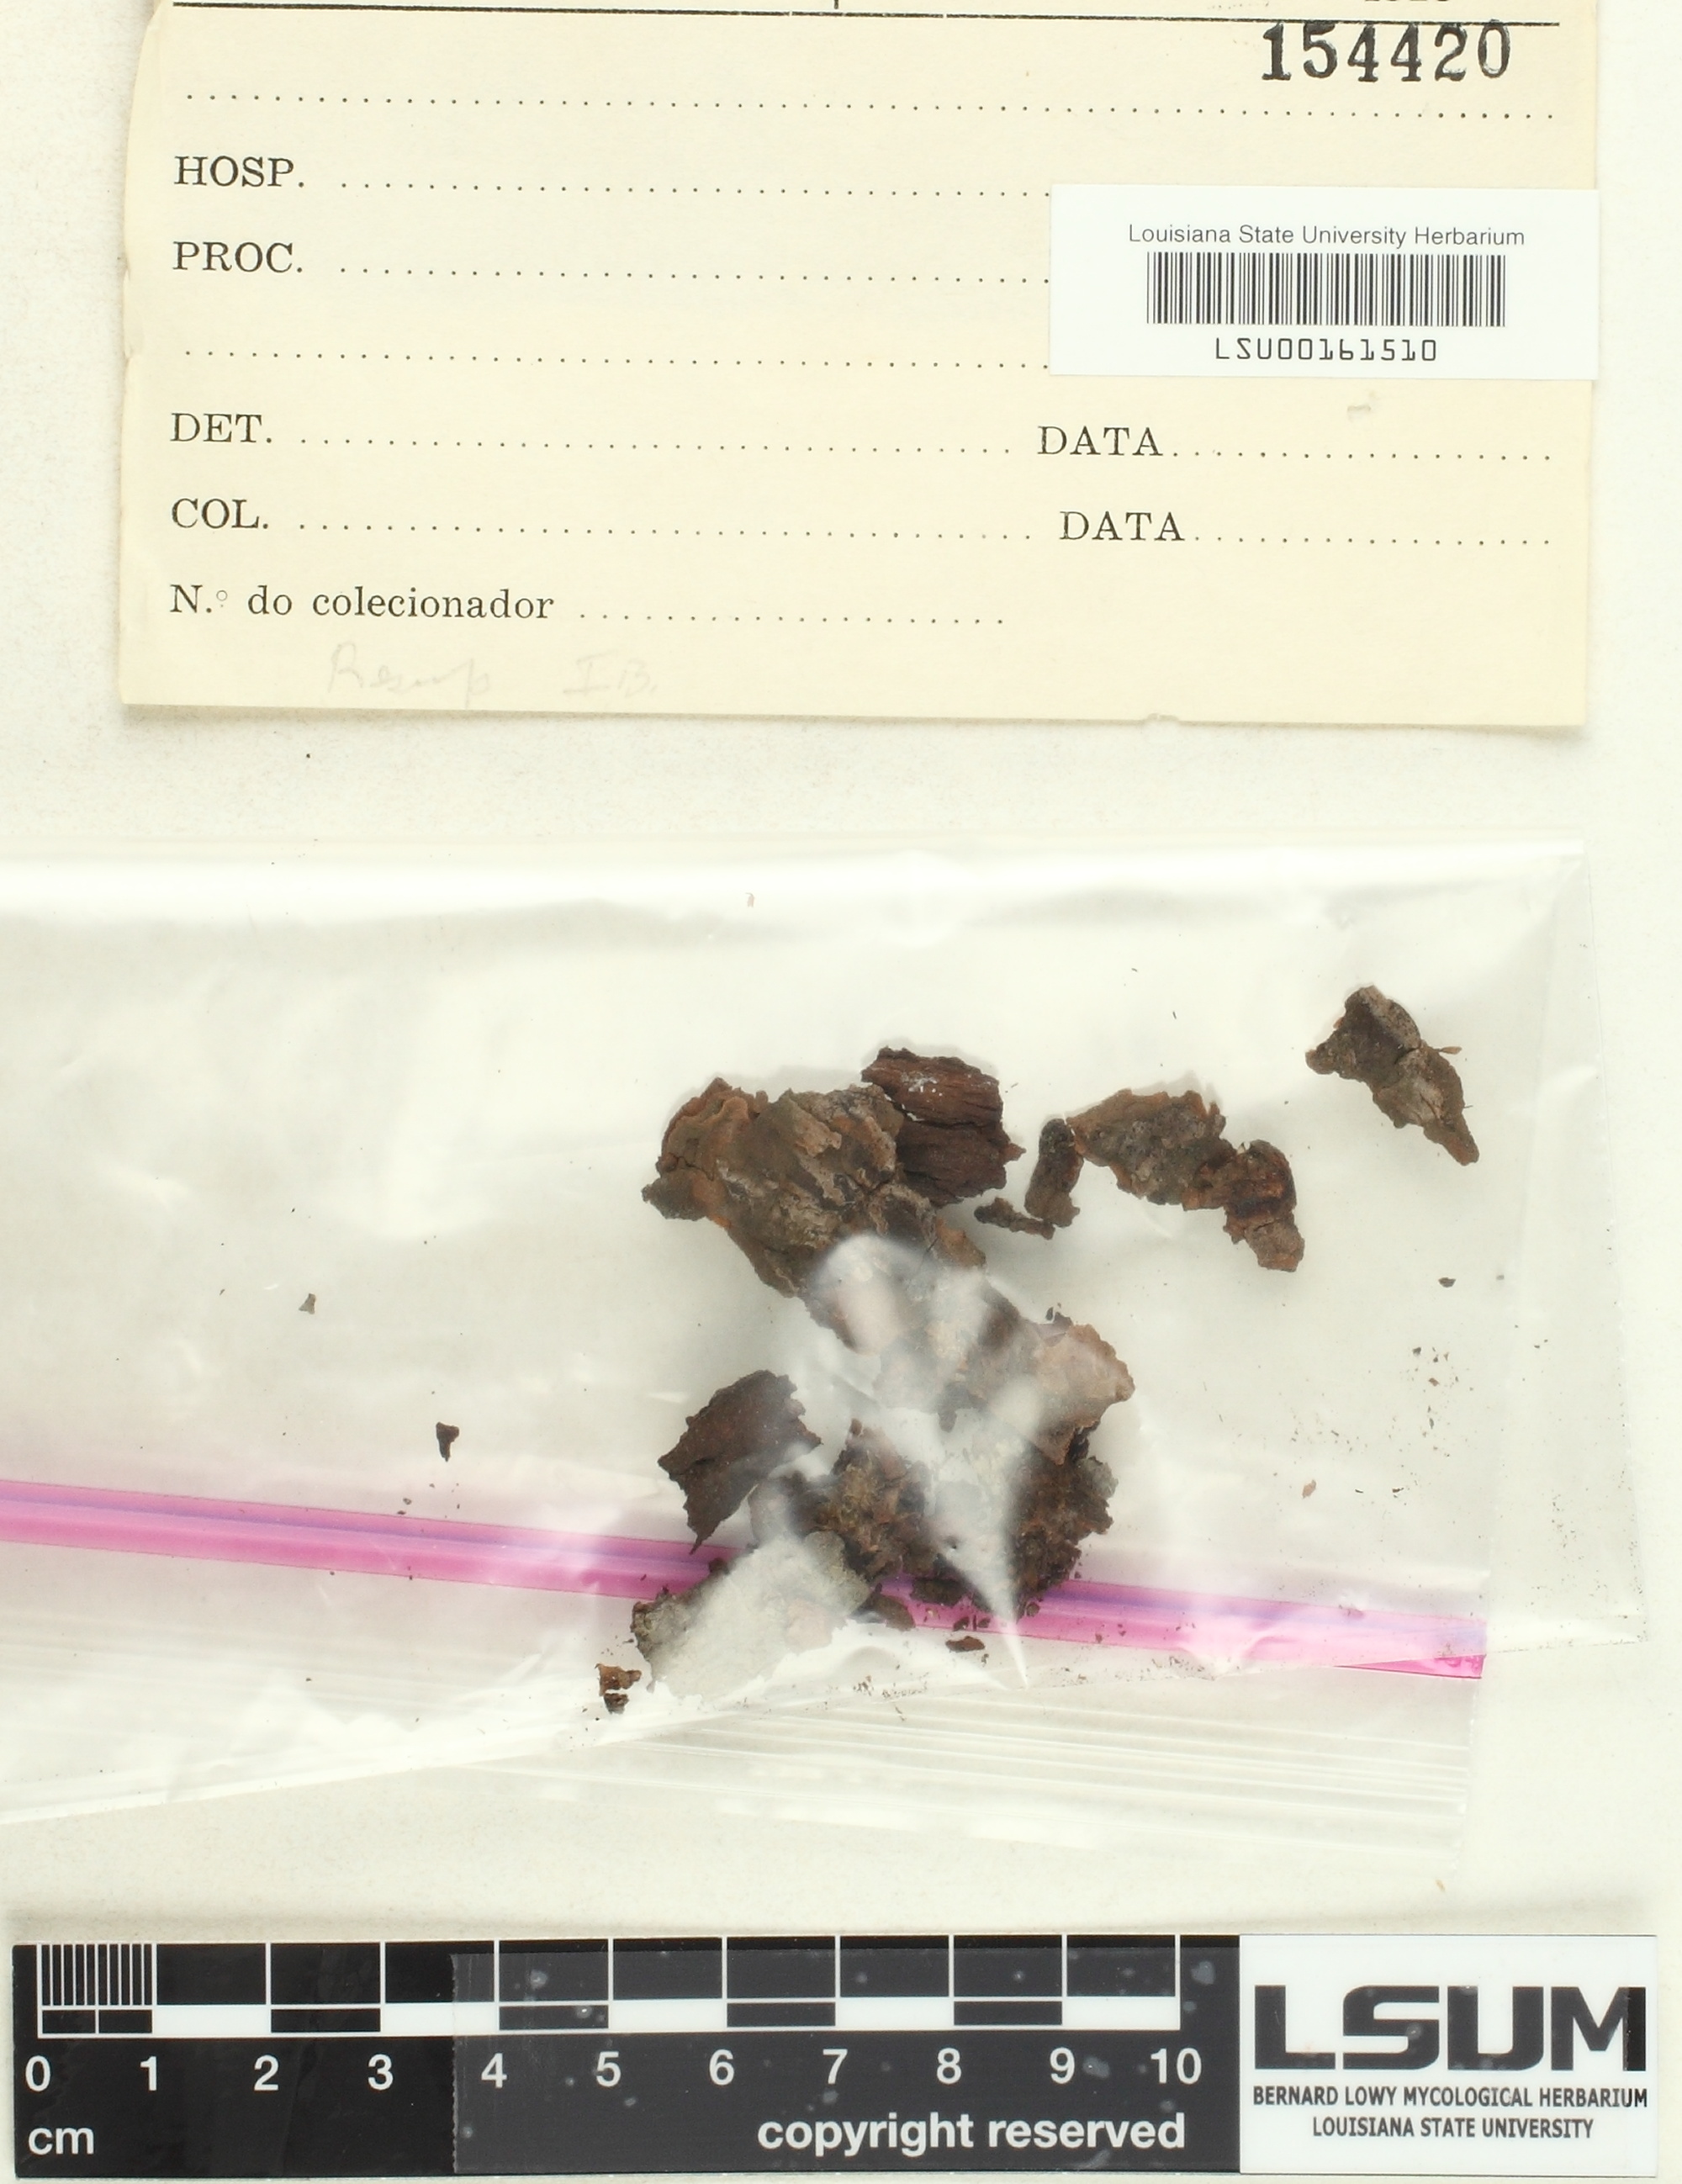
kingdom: Fungi
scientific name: Fungi
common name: Fungi
